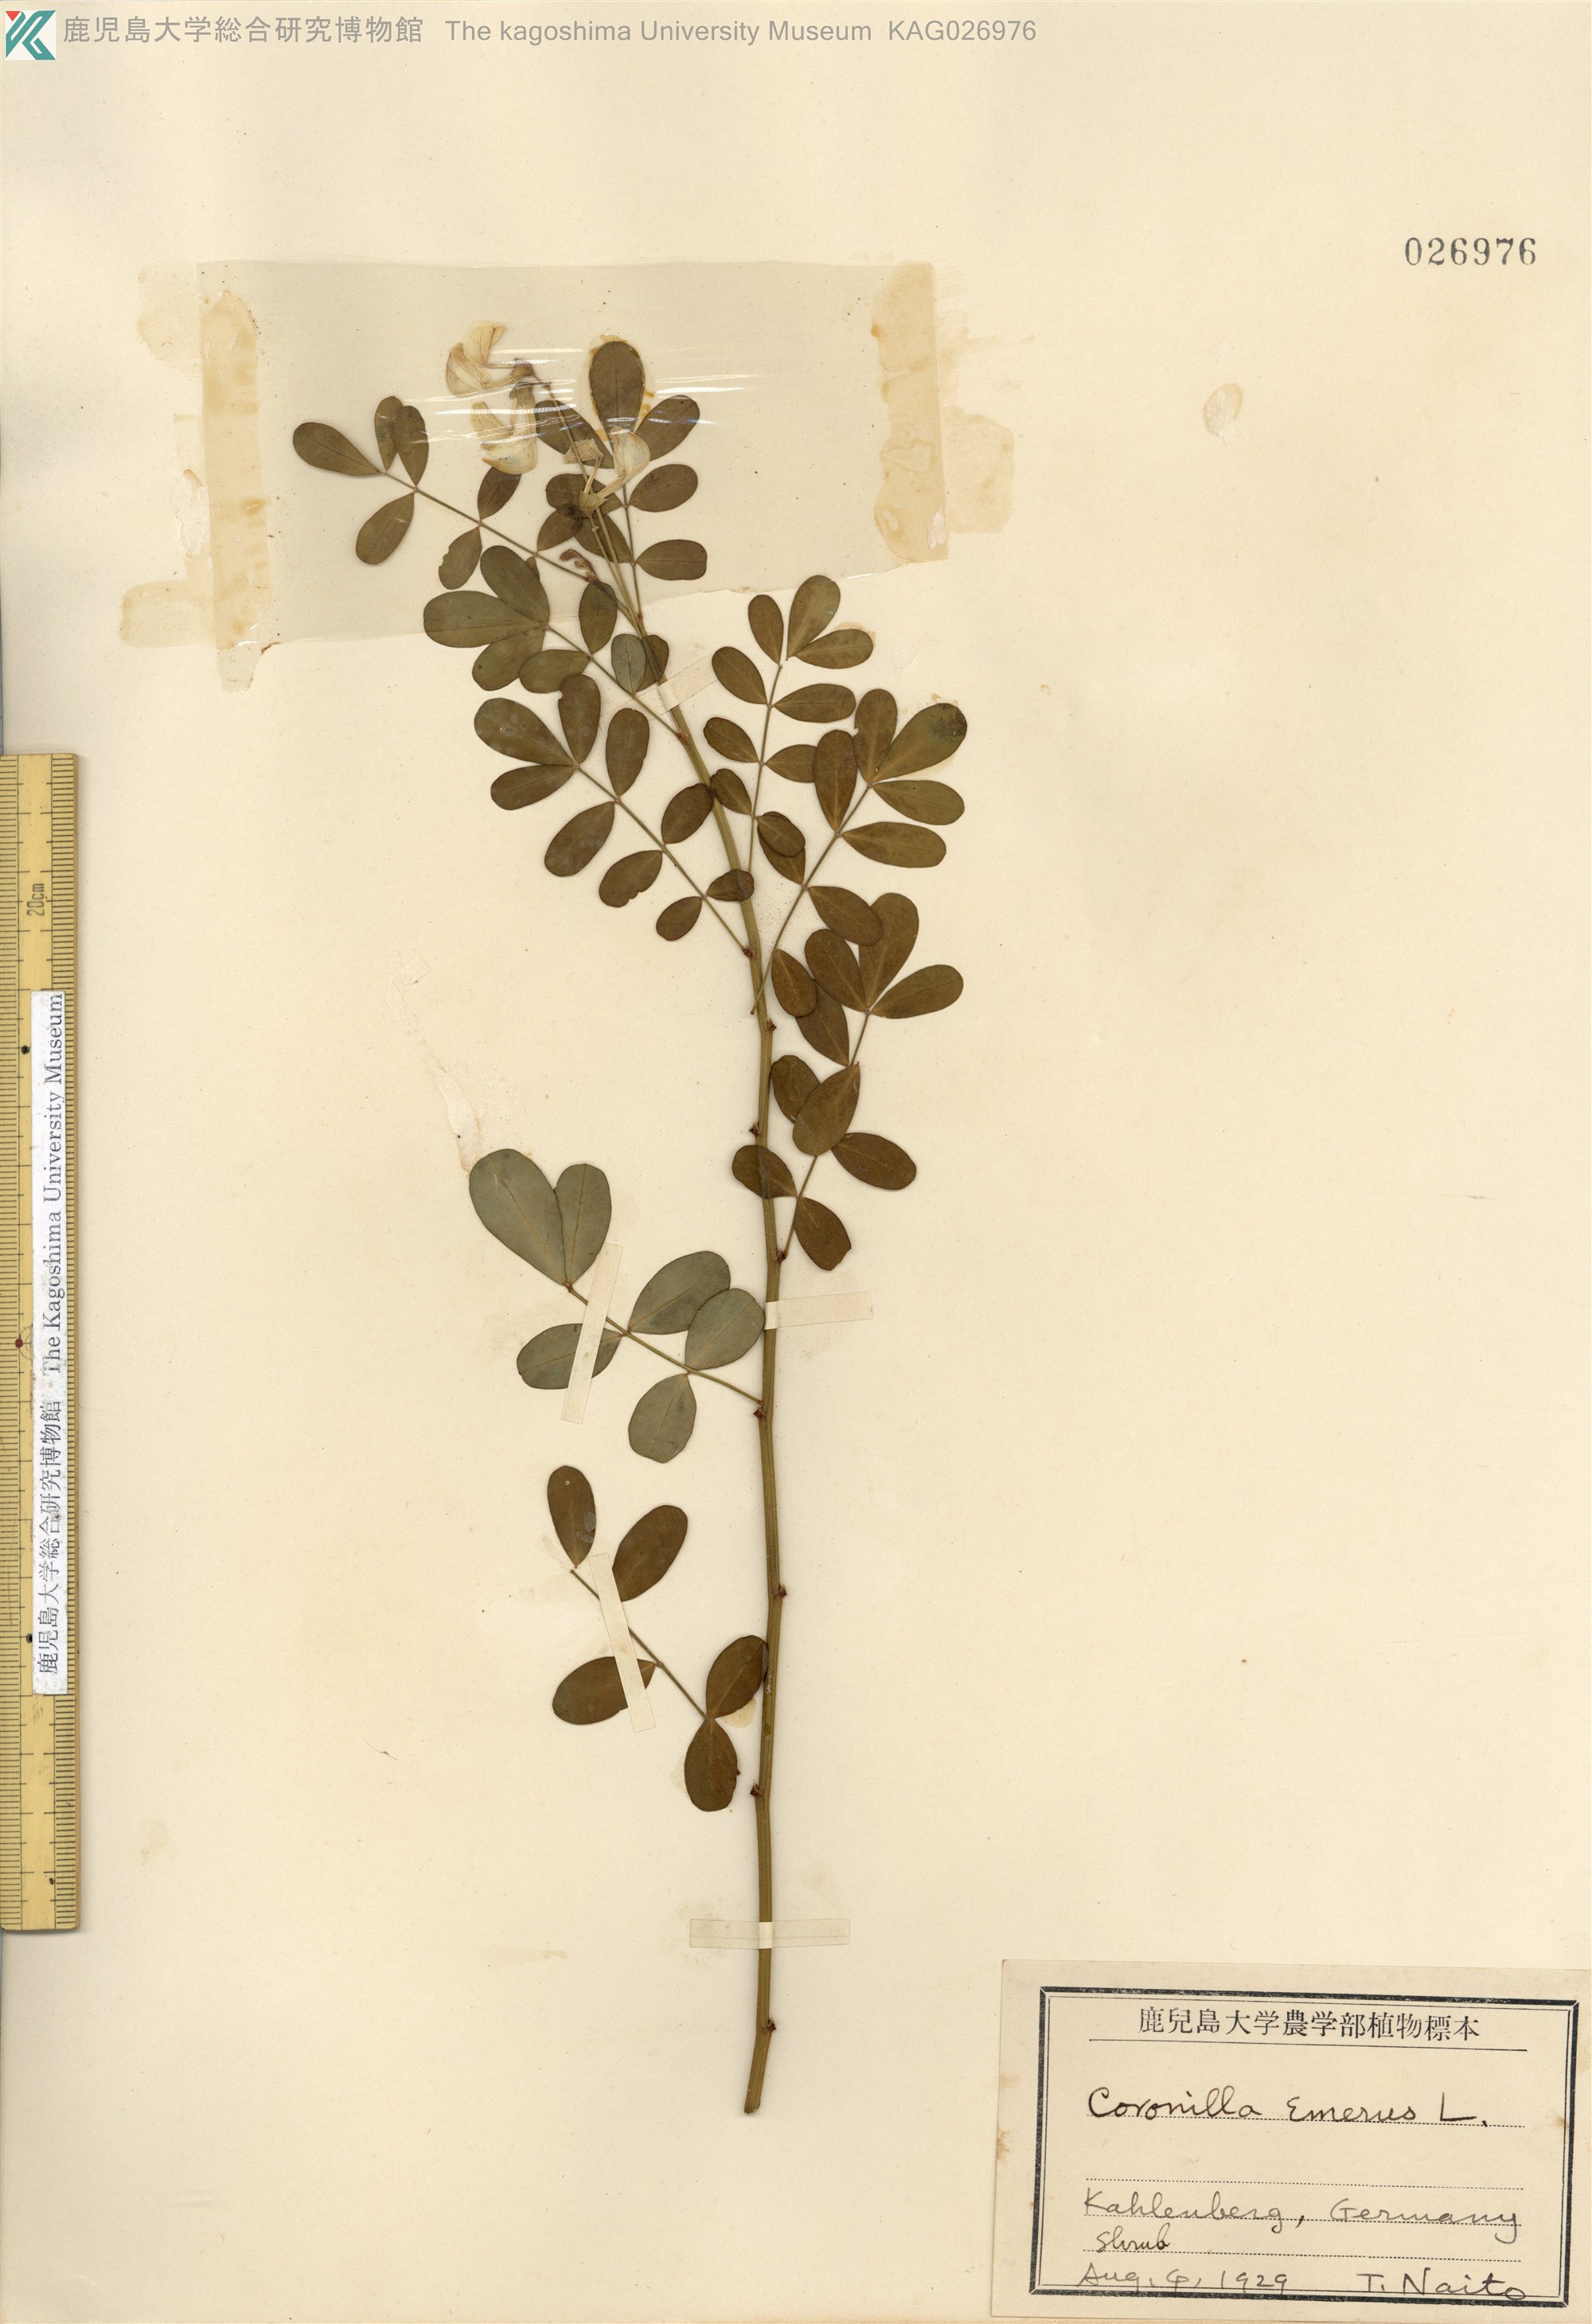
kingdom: Plantae
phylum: Tracheophyta
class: Magnoliopsida
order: Fabales
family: Fabaceae
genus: Coronilla
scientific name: Coronilla varia
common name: Crownvetch
